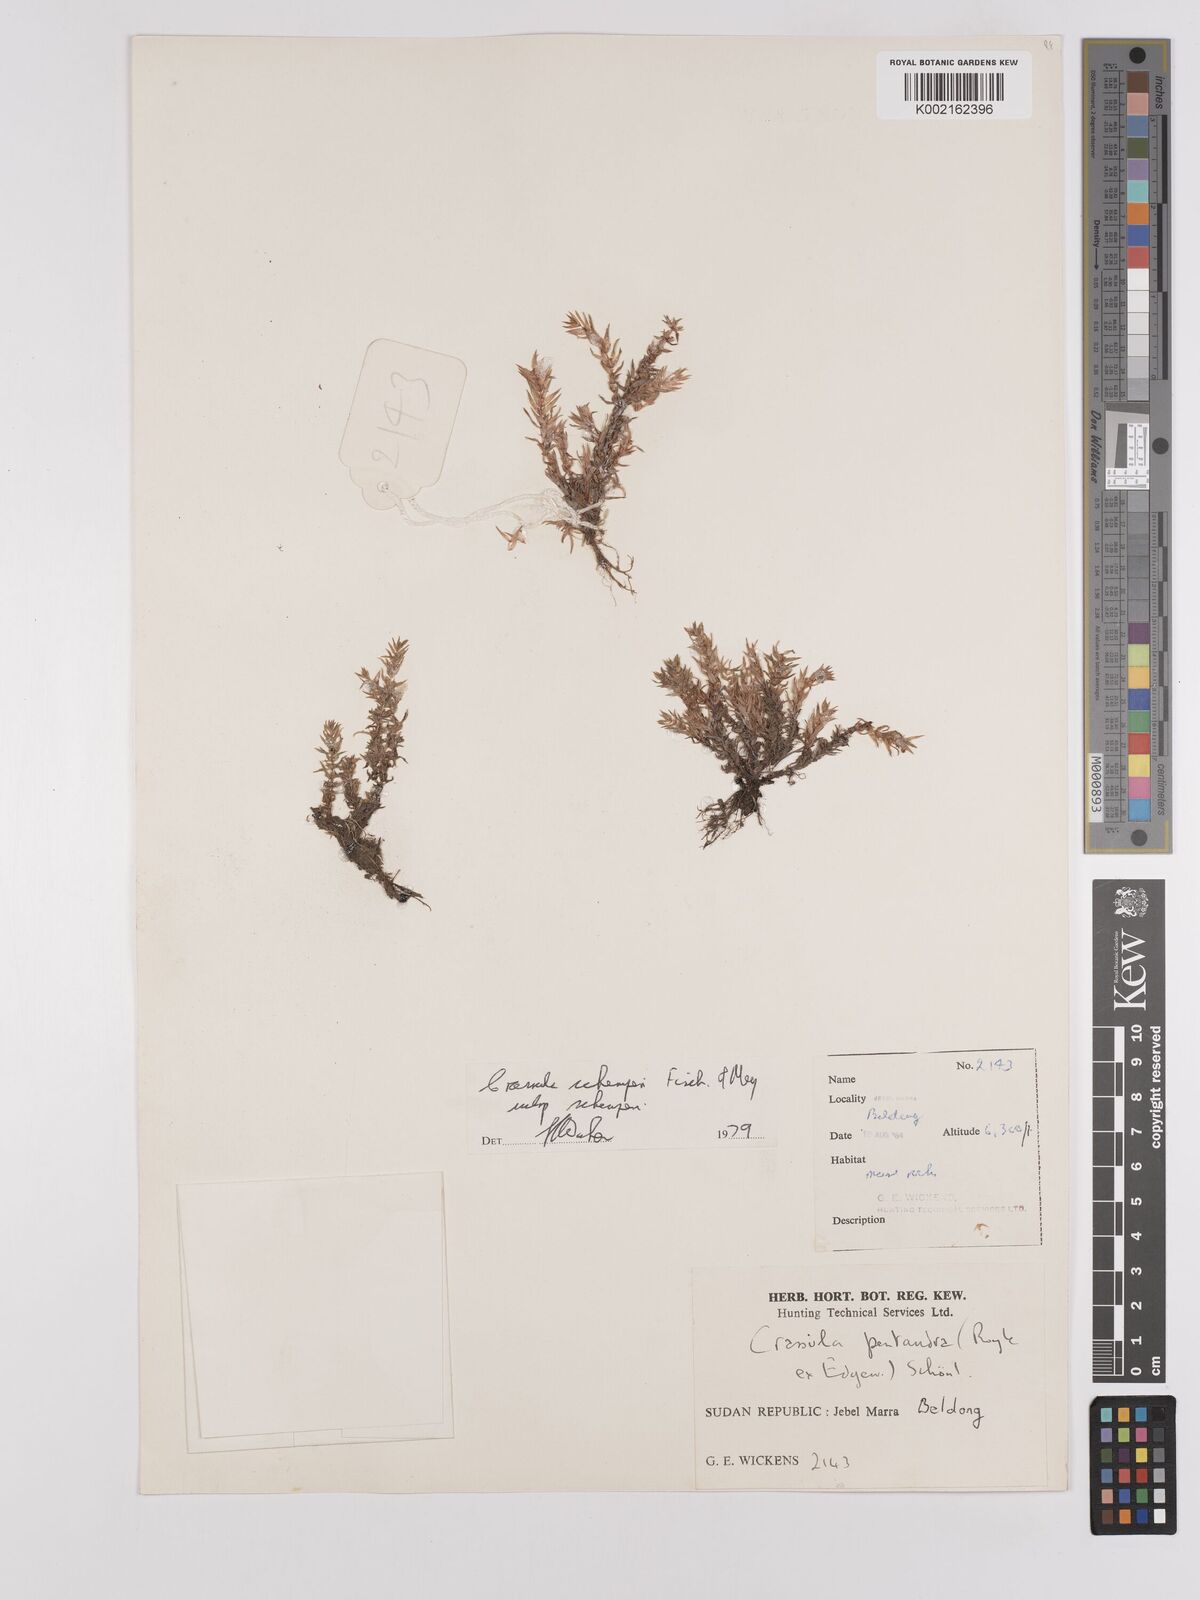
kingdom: Plantae
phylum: Tracheophyta
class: Magnoliopsida
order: Saxifragales
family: Crassulaceae
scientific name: Crassulaceae
